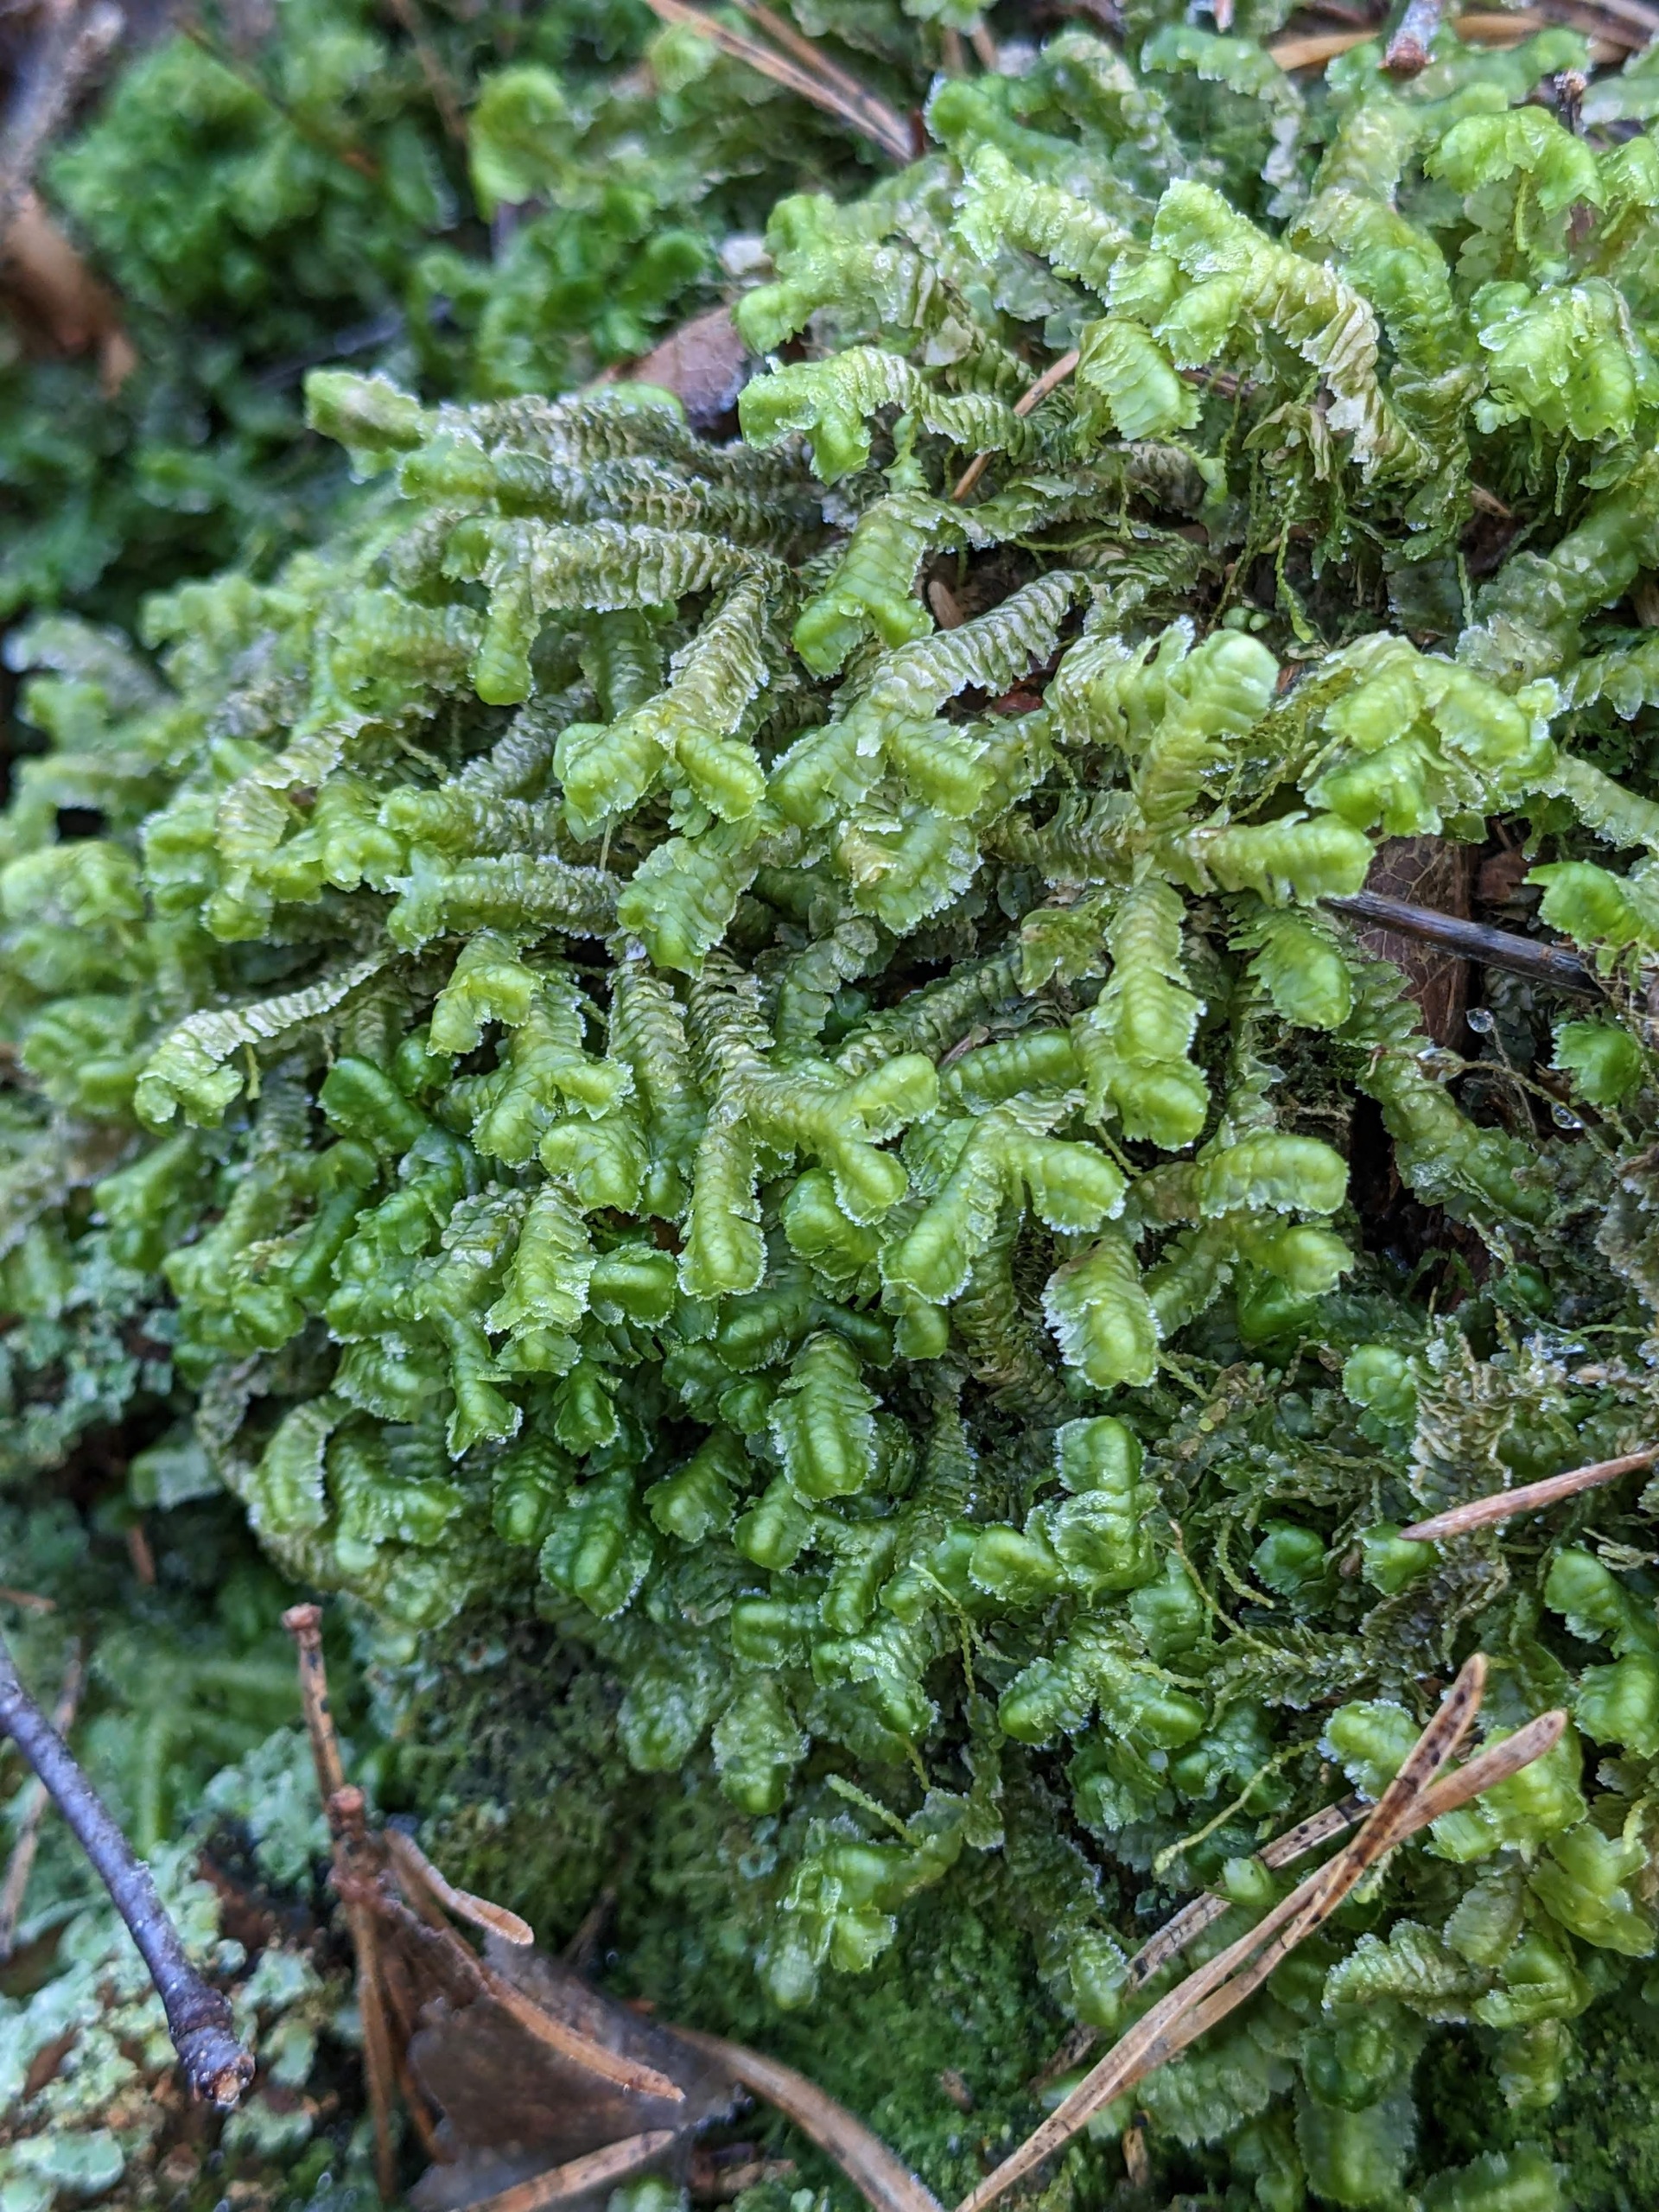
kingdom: Plantae
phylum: Marchantiophyta
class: Jungermanniopsida
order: Jungermanniales
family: Lepidoziaceae
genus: Bazzania
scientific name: Bazzania trilobata
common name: Stor styltemos
